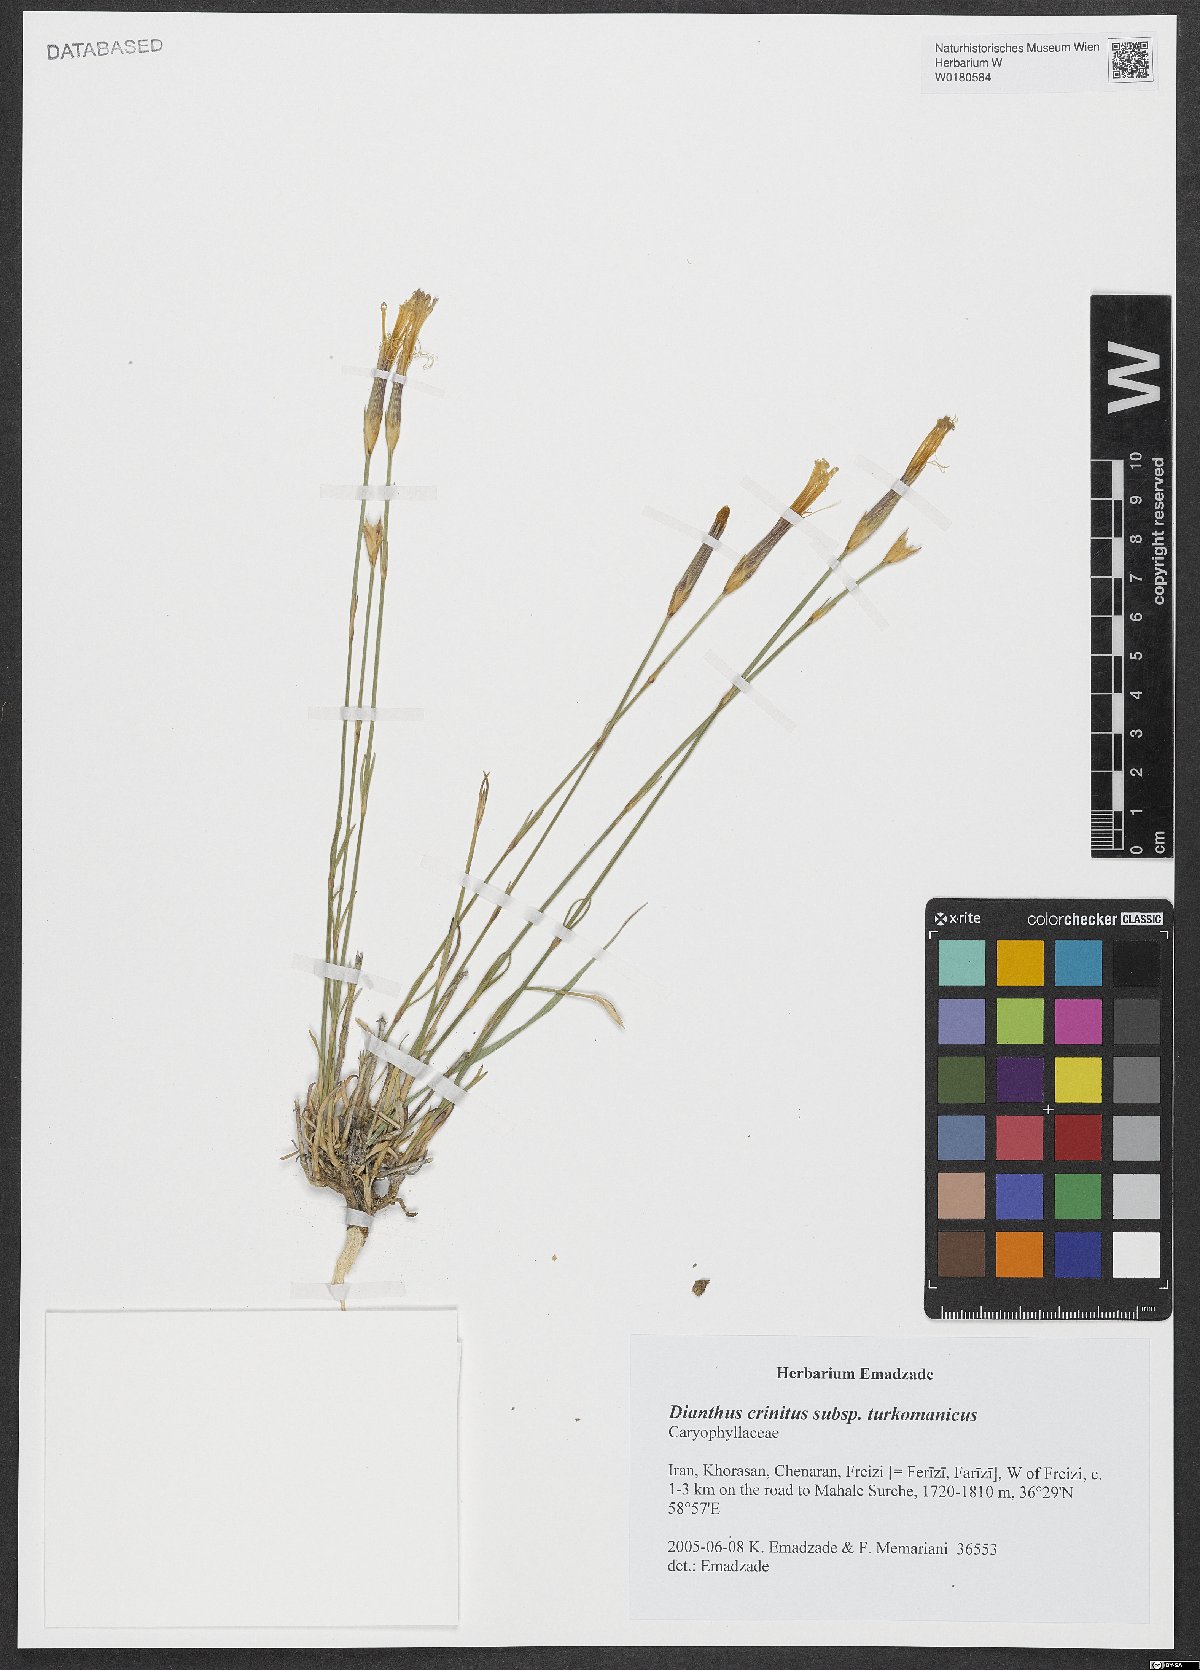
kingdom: Plantae
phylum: Tracheophyta
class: Magnoliopsida
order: Caryophyllales
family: Caryophyllaceae
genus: Dianthus
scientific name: Dianthus turkestanicus
